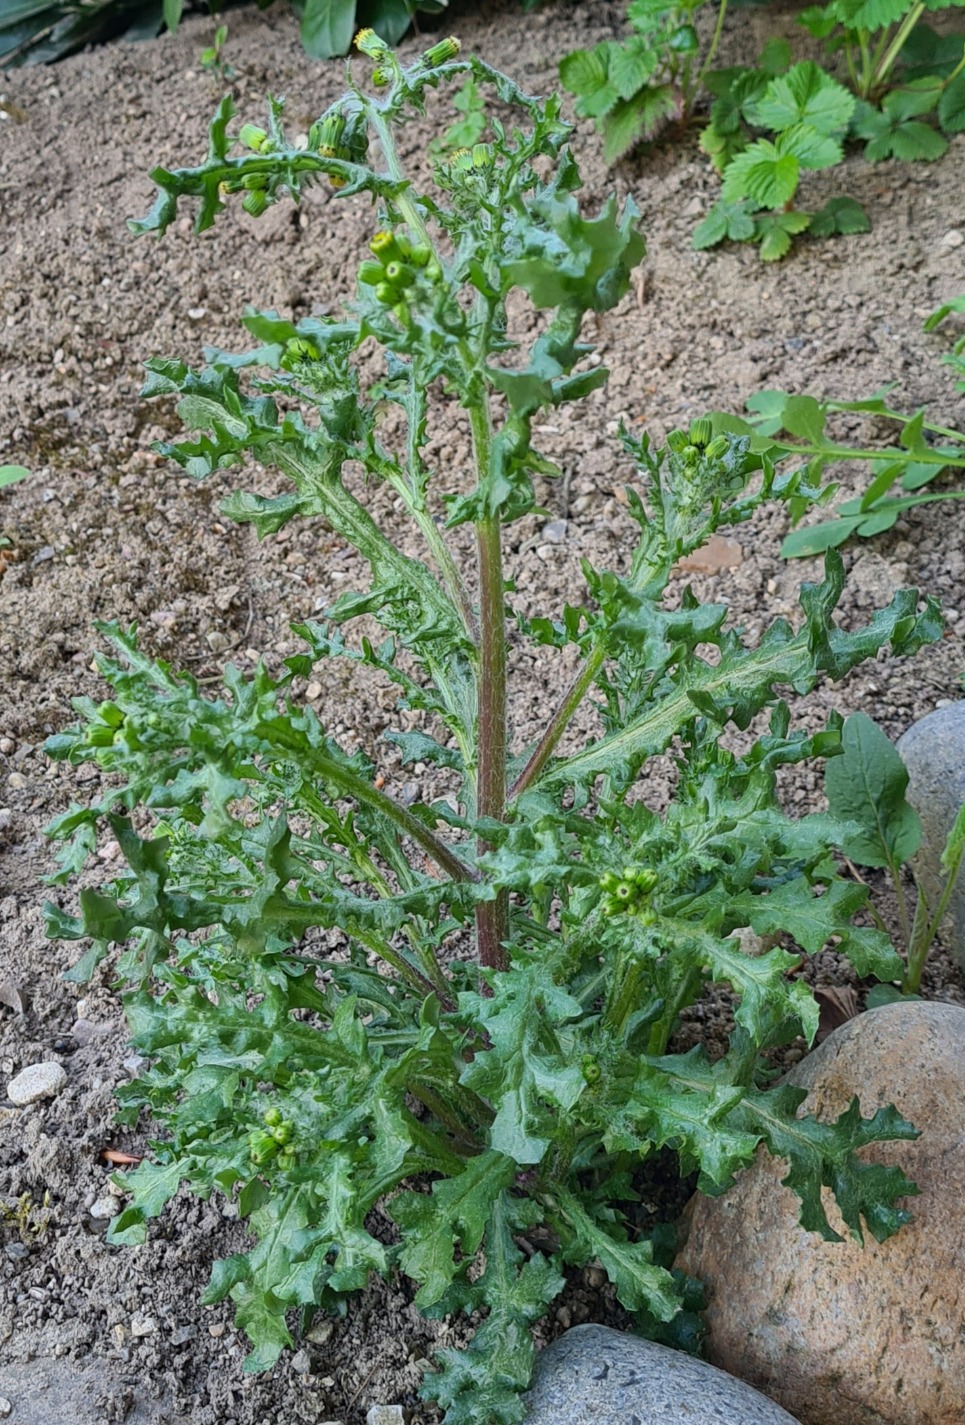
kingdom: Plantae
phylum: Tracheophyta
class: Magnoliopsida
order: Asterales
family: Asteraceae
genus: Senecio
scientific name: Senecio vulgaris
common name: Almindelig brandbæger
